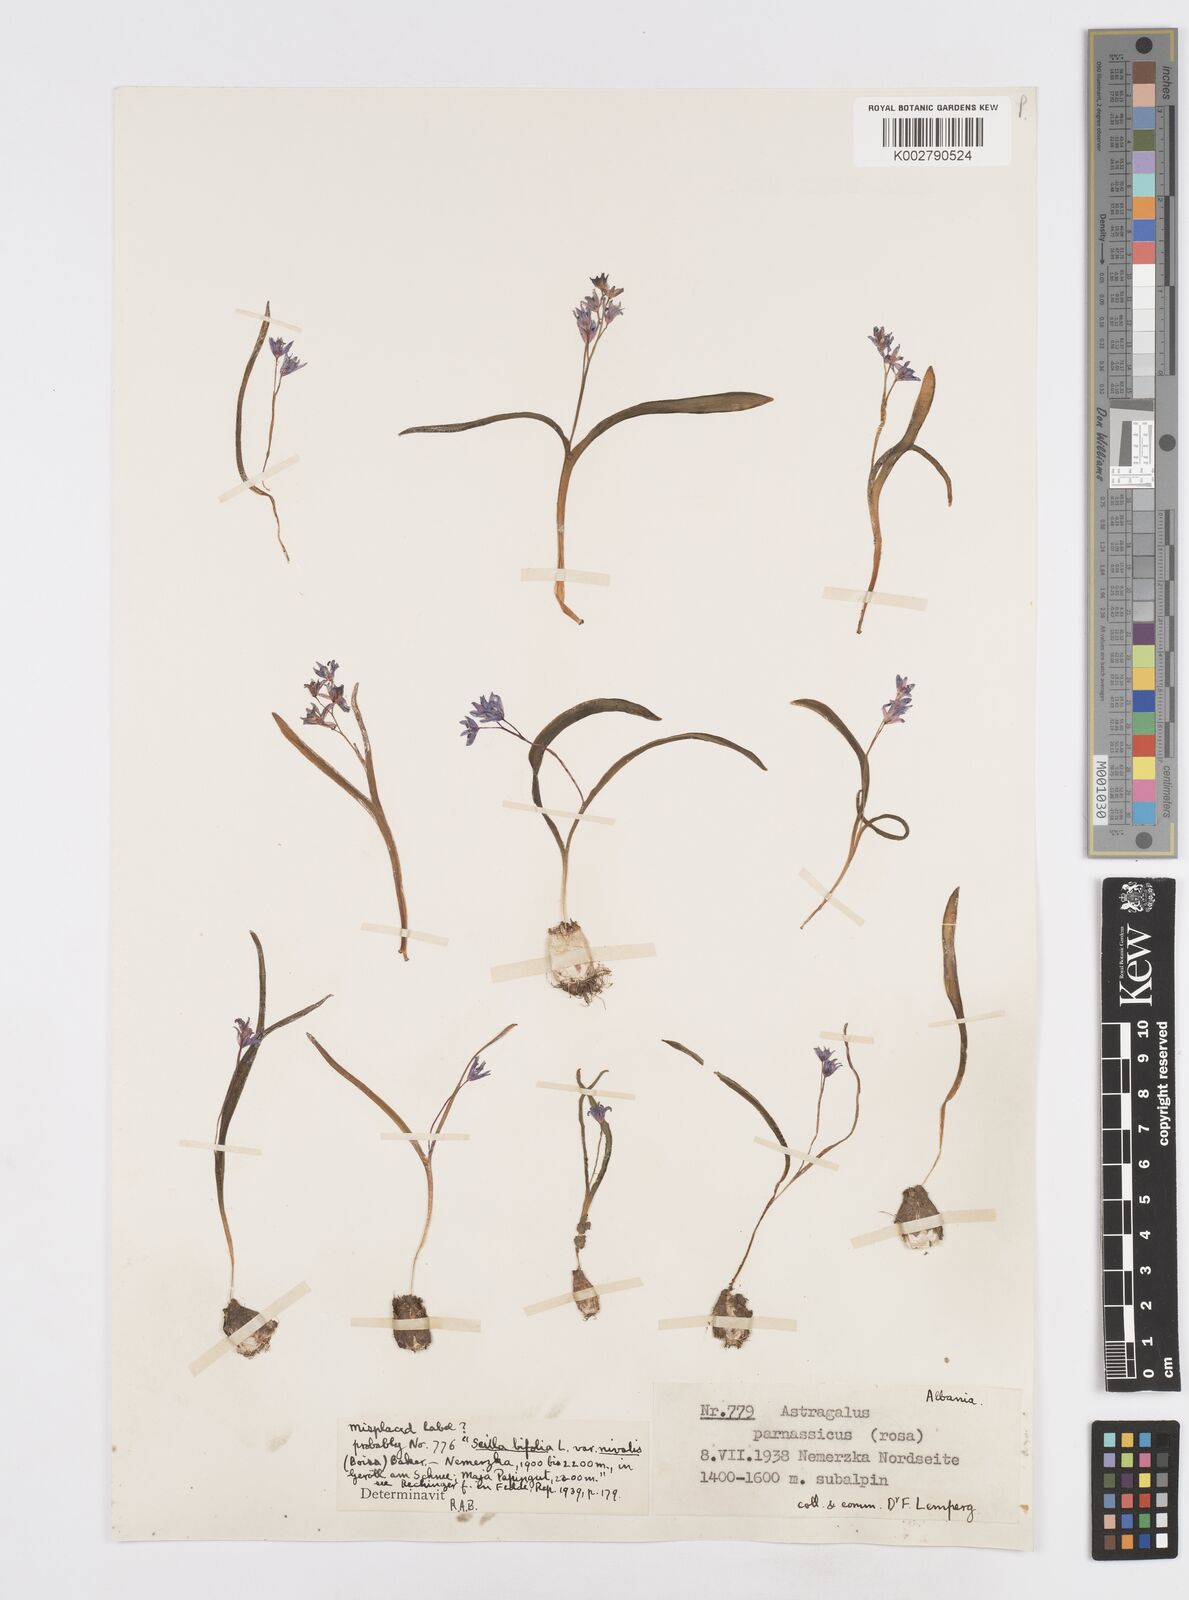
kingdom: Plantae
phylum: Tracheophyta
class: Liliopsida
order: Asparagales
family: Asparagaceae
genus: Scilla
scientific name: Scilla
